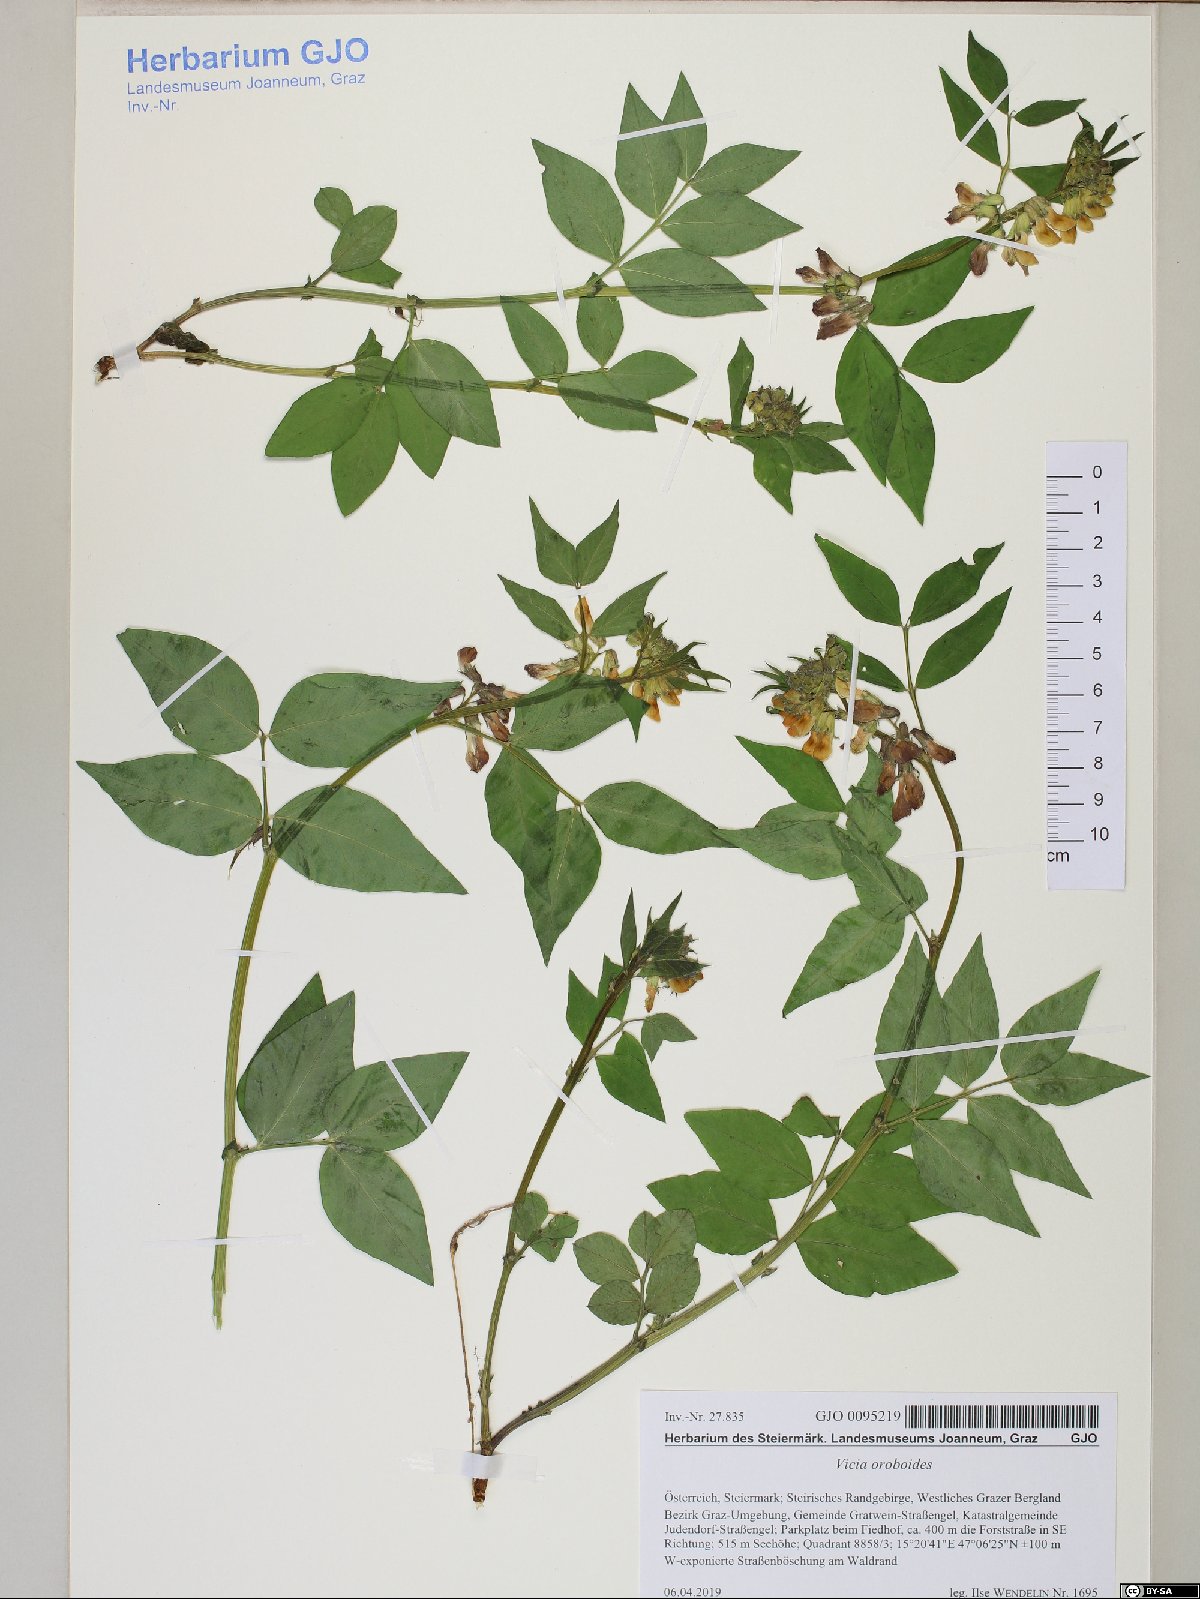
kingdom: Plantae
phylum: Tracheophyta
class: Magnoliopsida
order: Fabales
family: Fabaceae
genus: Vicia
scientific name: Vicia oroboides
